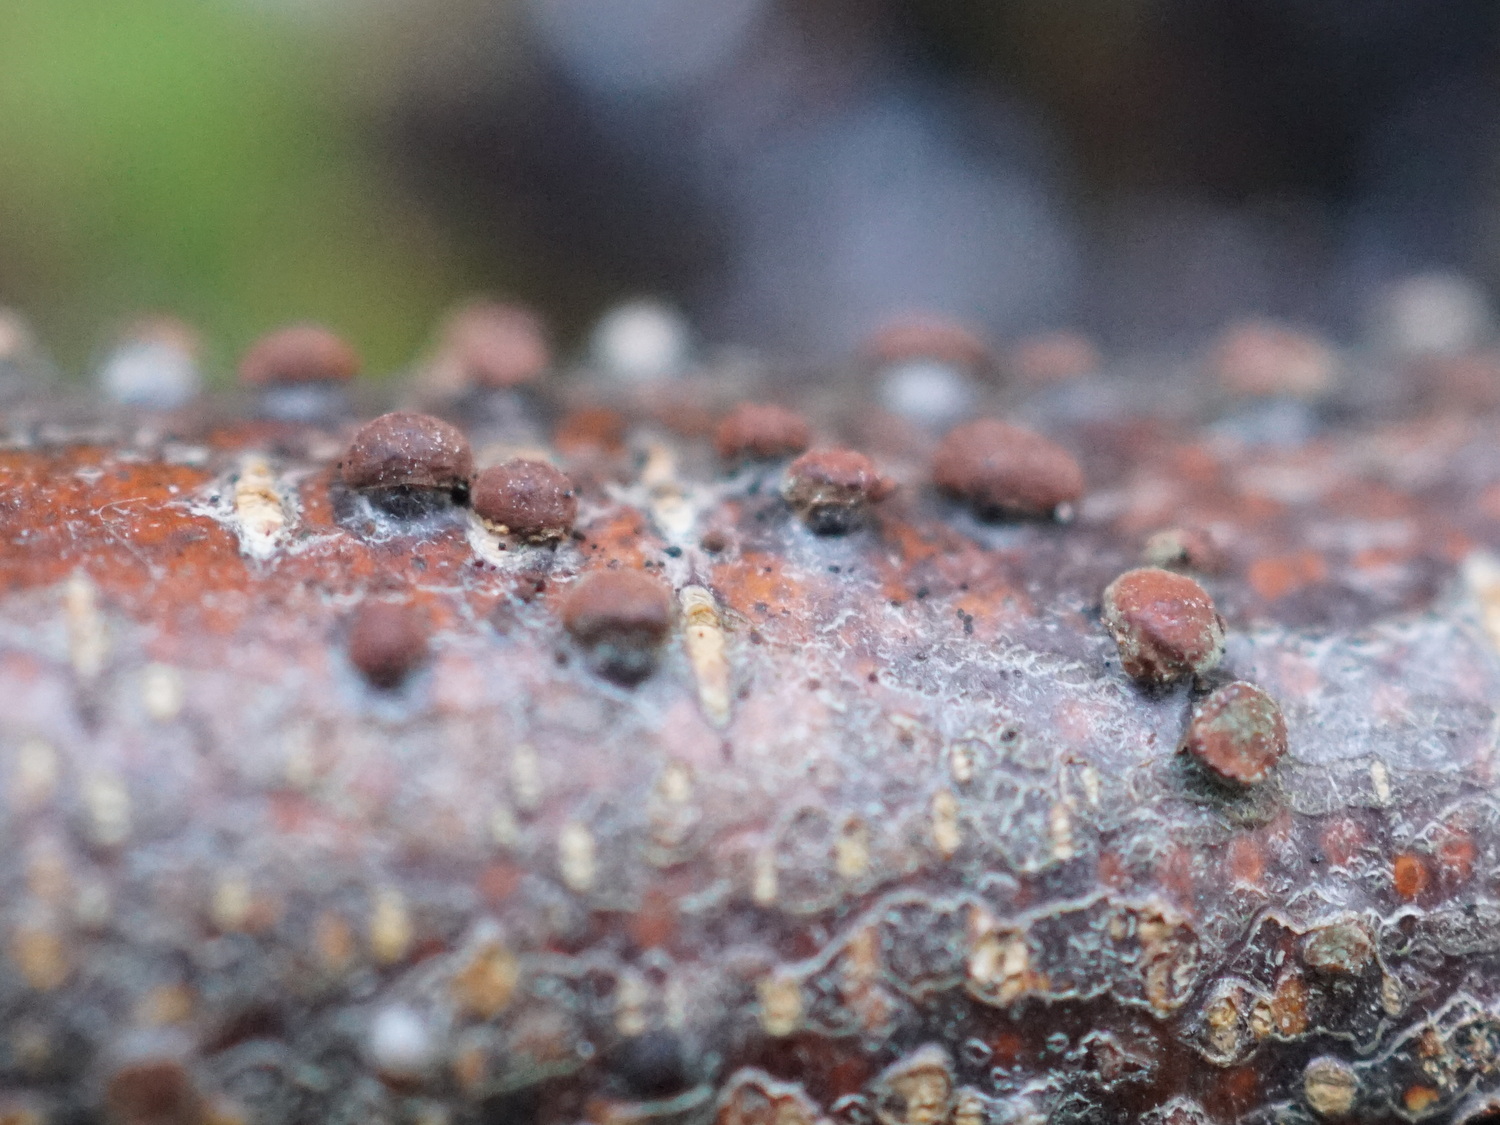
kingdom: Fungi
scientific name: Fungi
